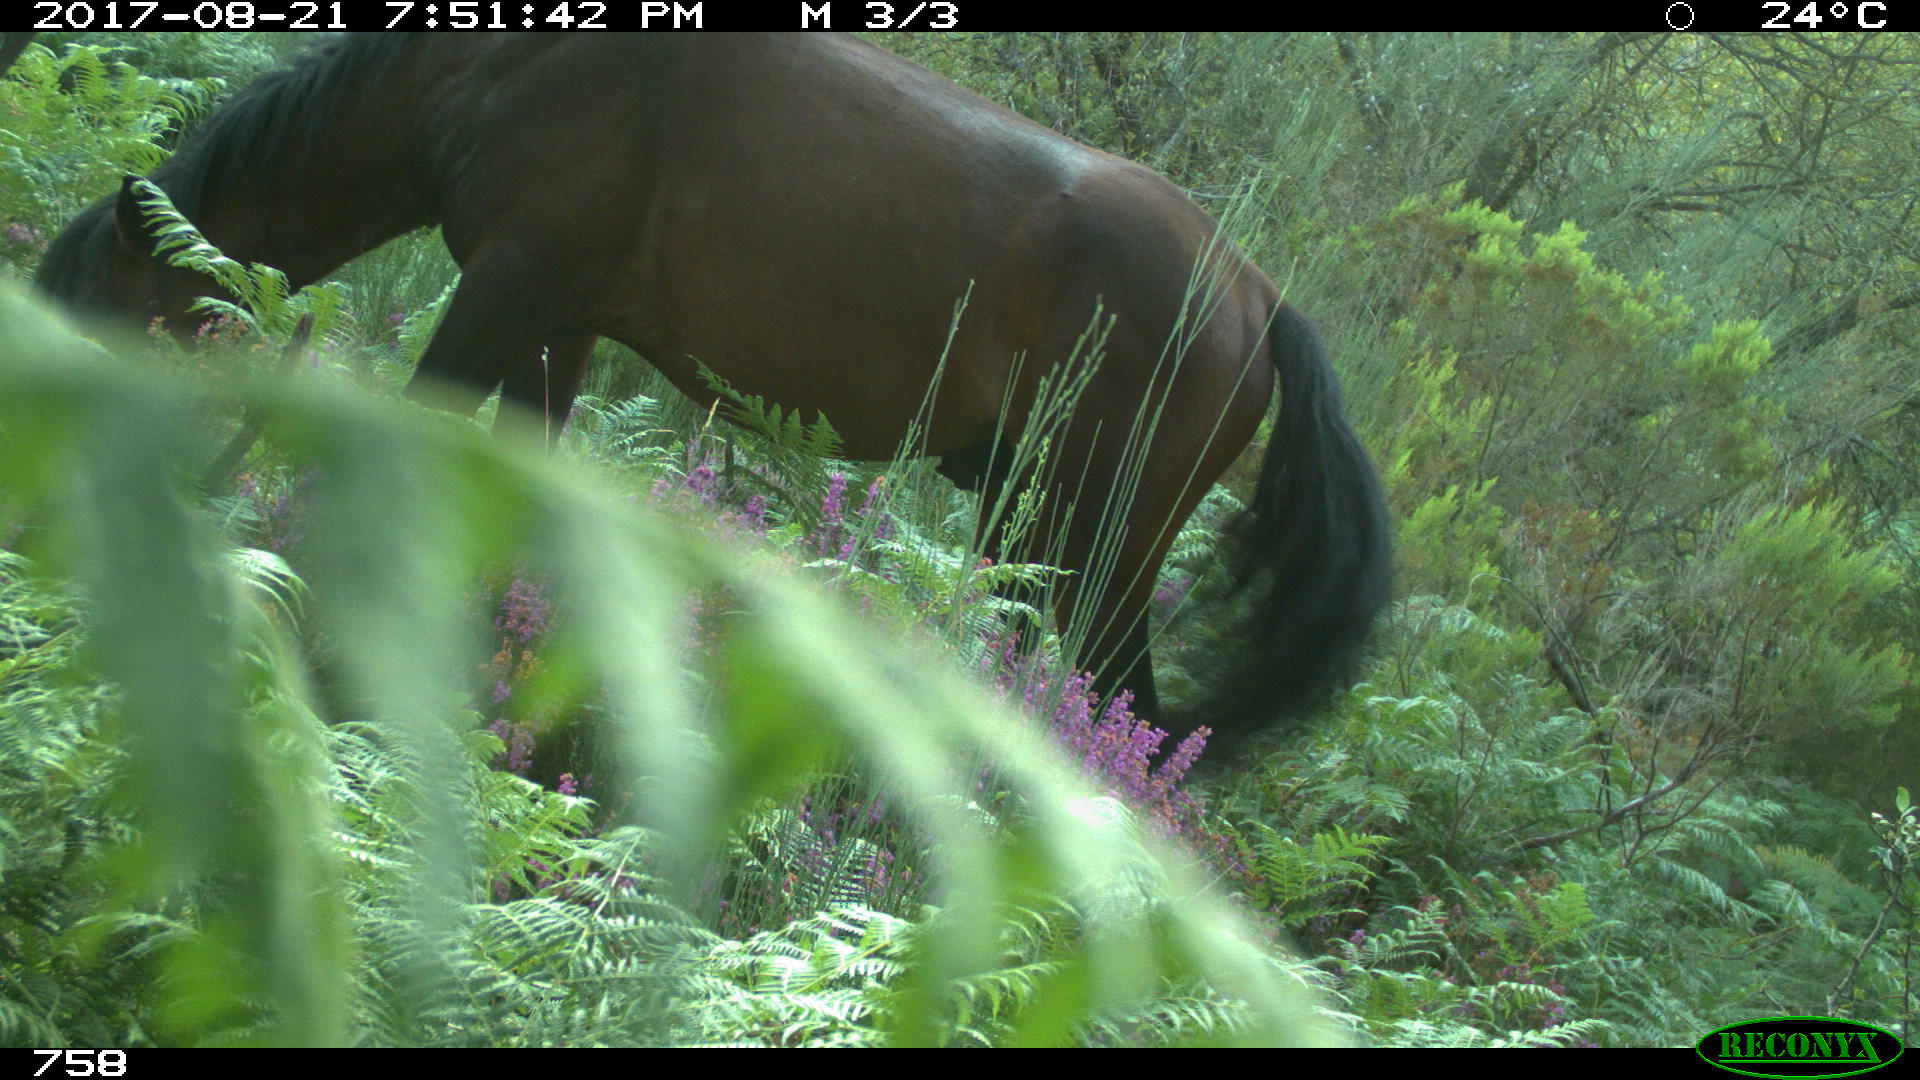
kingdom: Animalia
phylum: Chordata
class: Mammalia
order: Perissodactyla
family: Equidae
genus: Equus
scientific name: Equus caballus
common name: Horse
